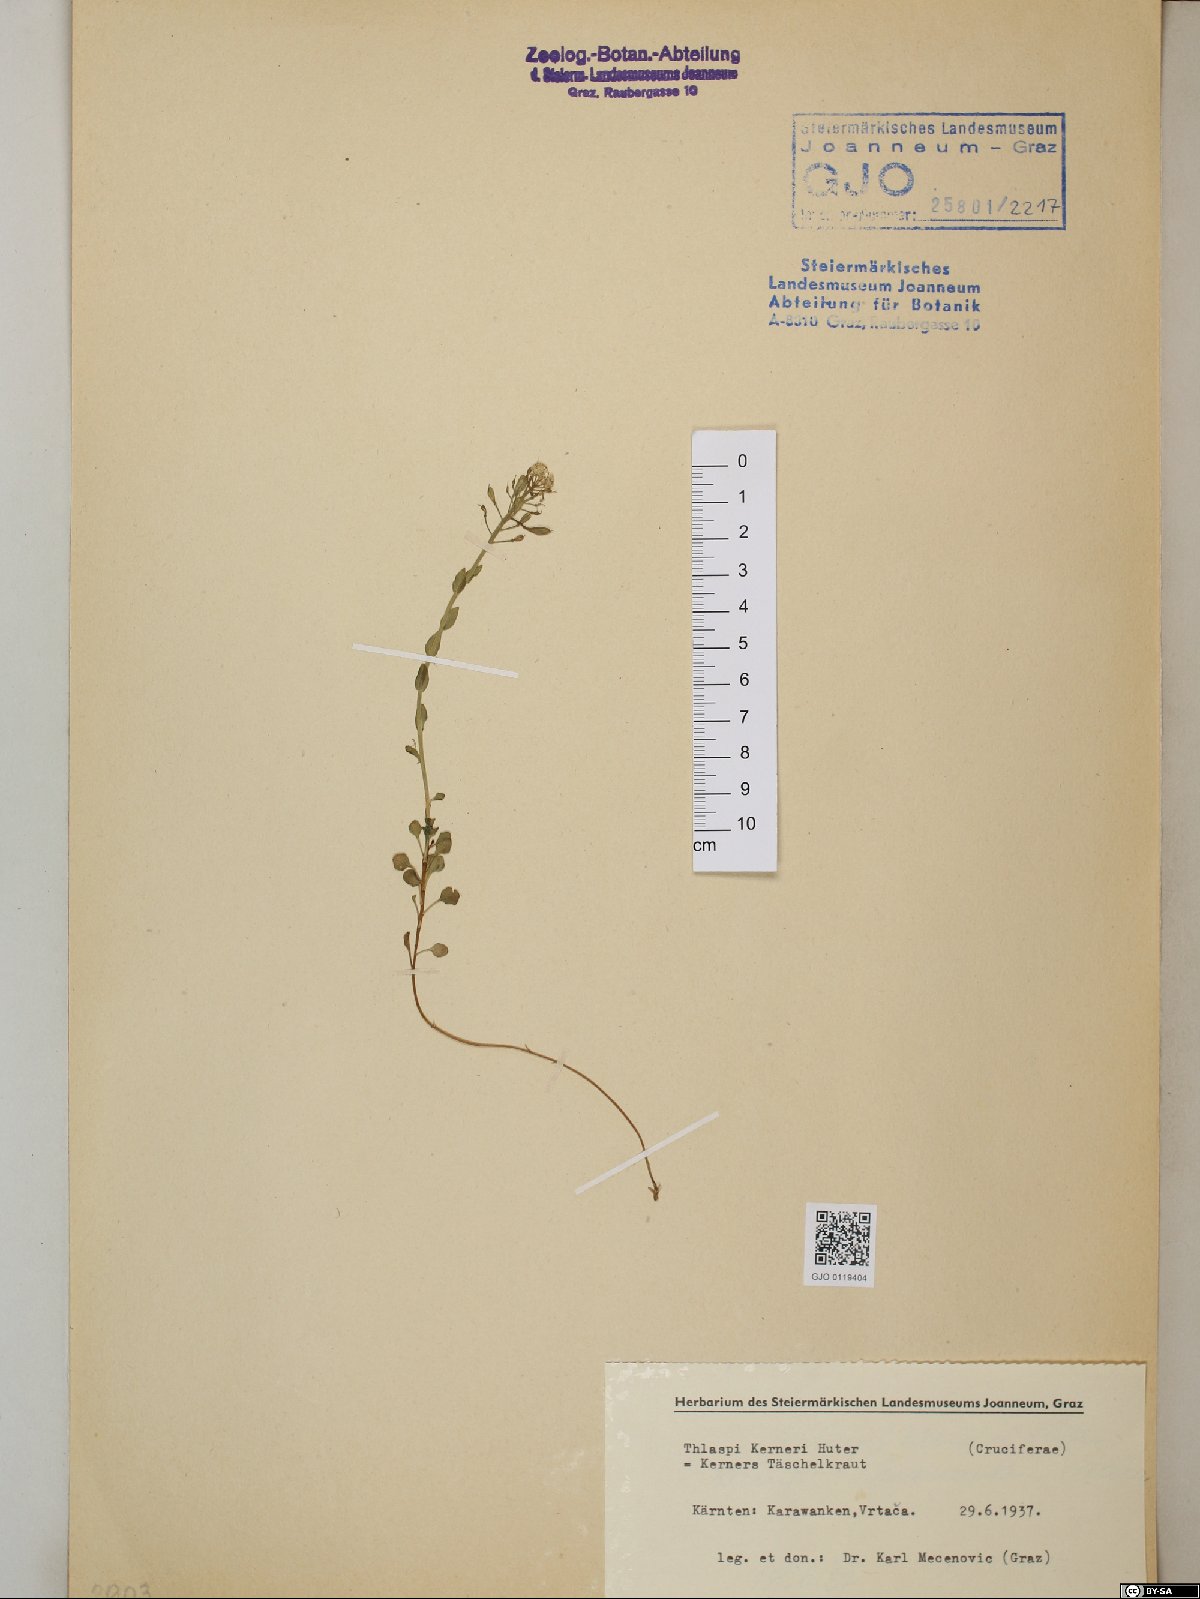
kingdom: Plantae
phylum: Tracheophyta
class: Magnoliopsida
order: Brassicales
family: Brassicaceae
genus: Noccaea
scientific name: Noccaea minima
